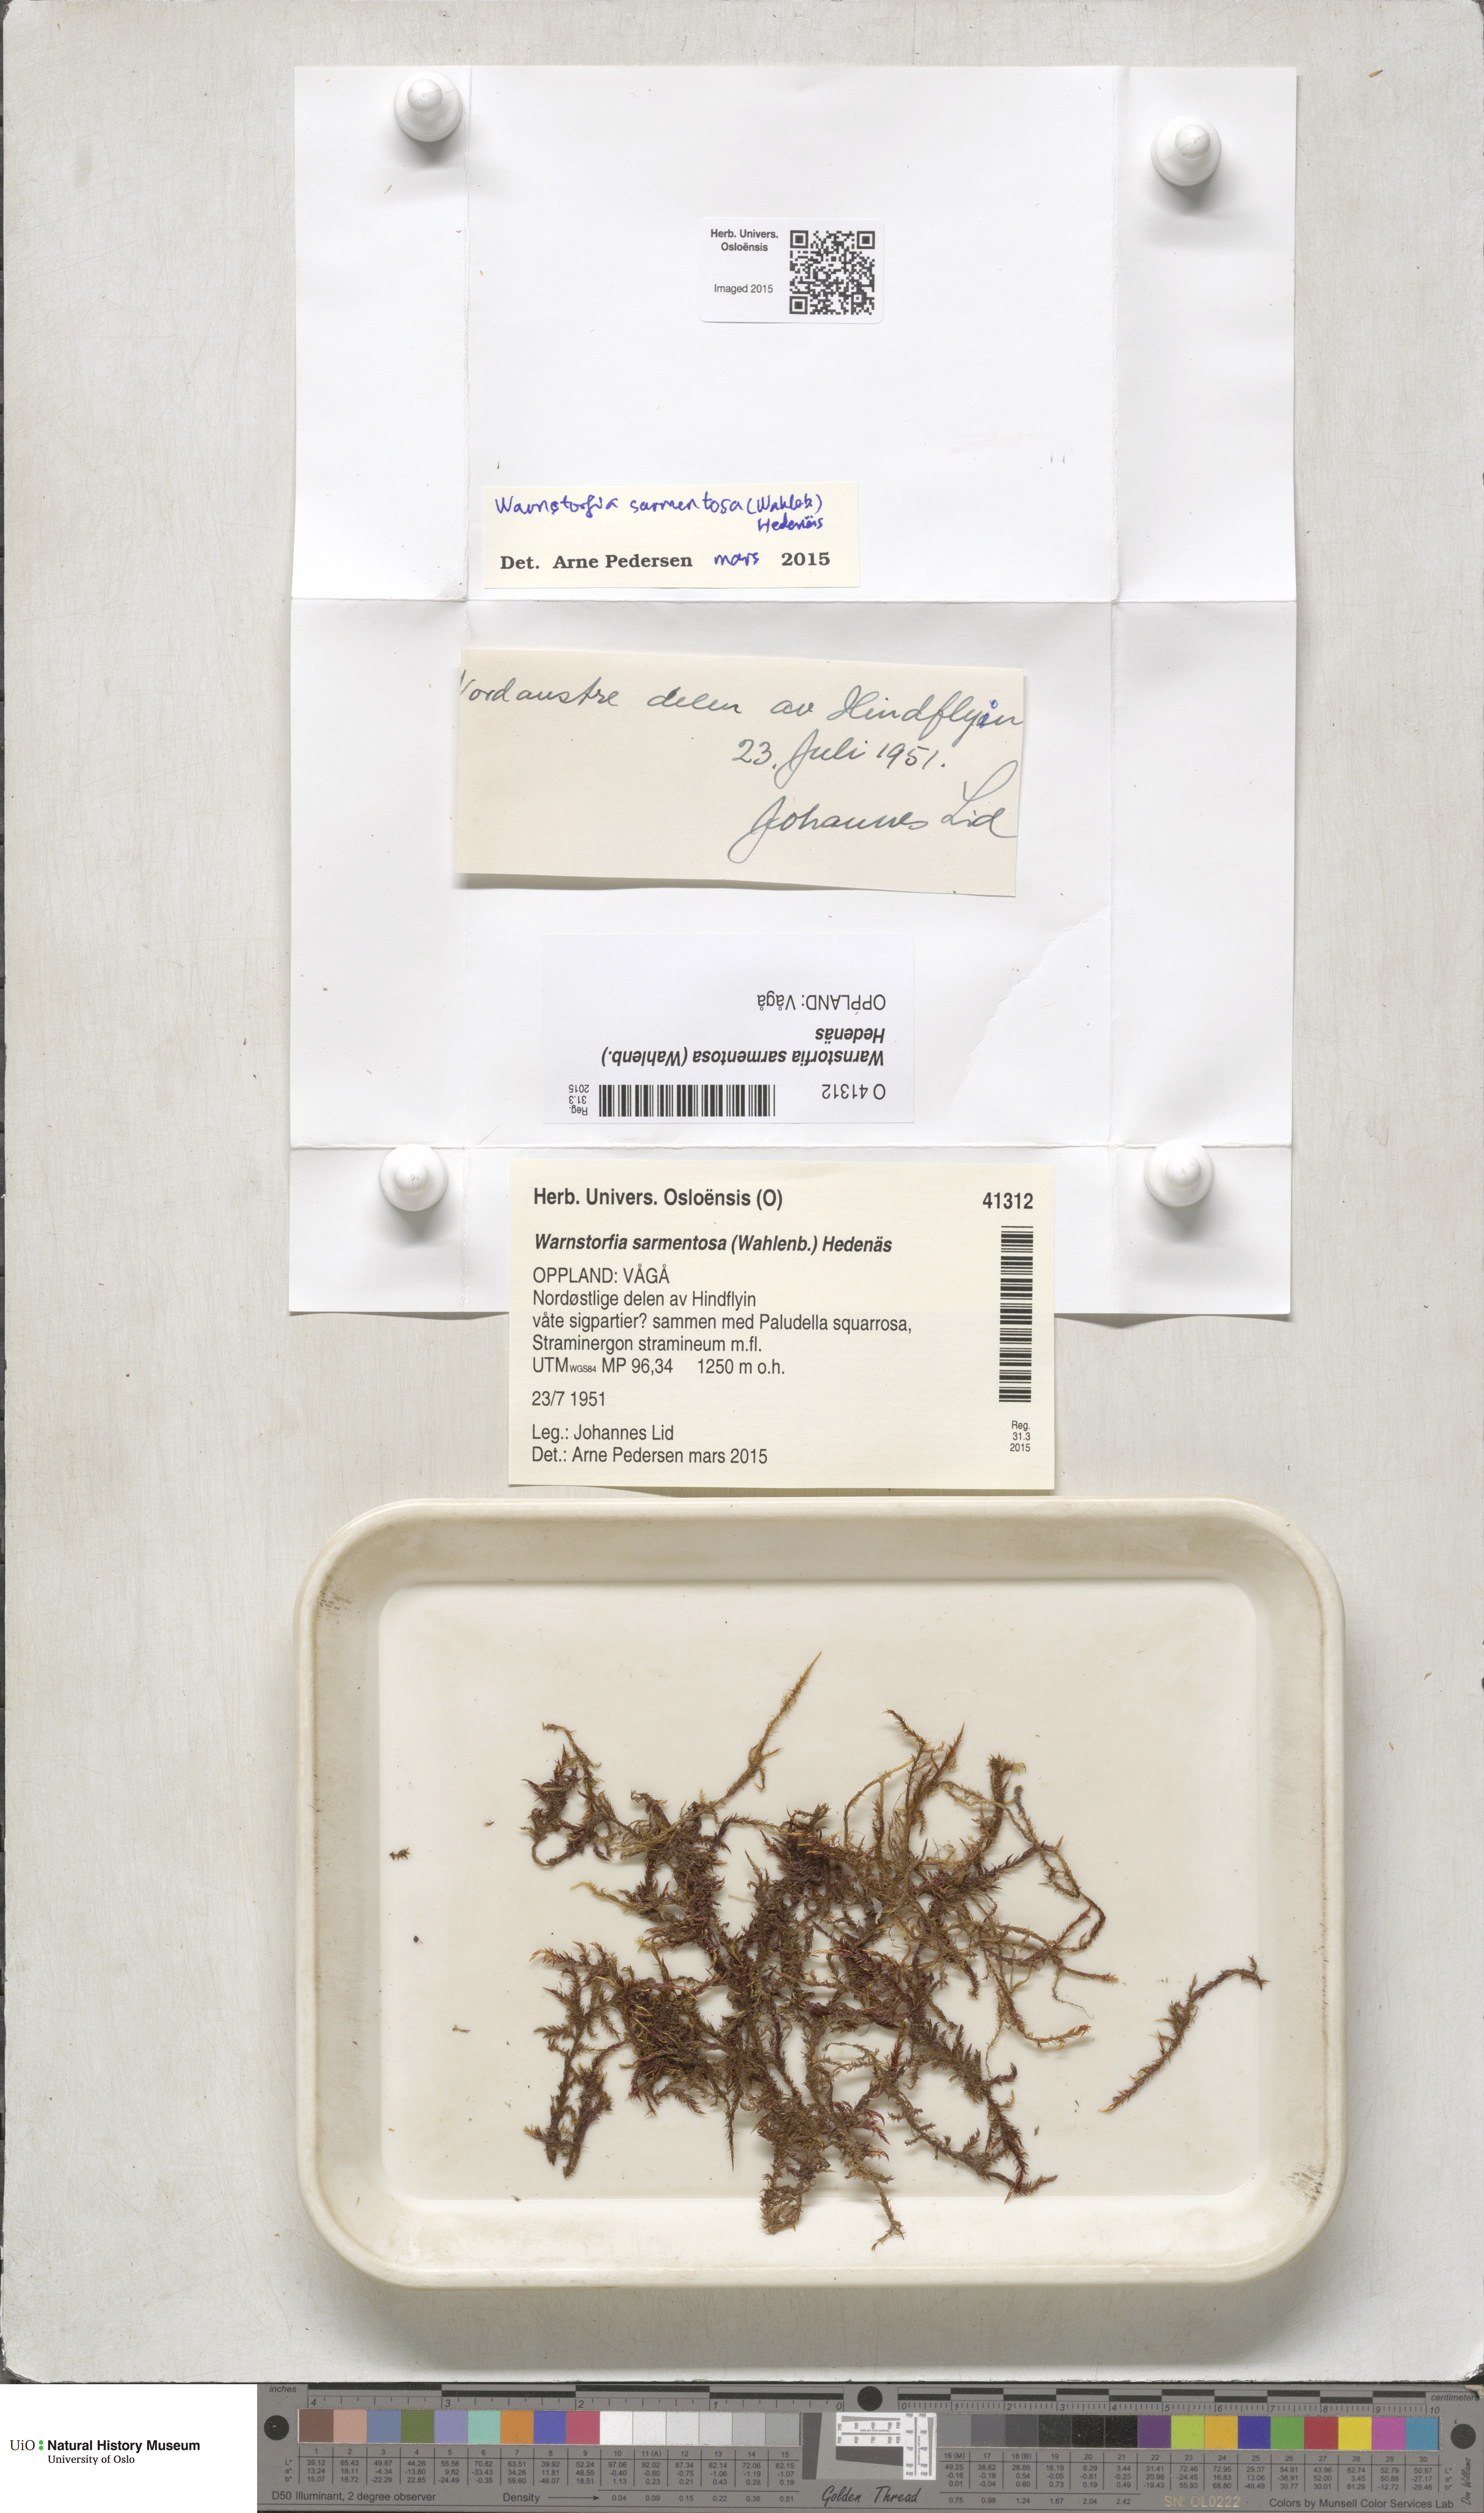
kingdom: Plantae
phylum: Bryophyta
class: Bryopsida
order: Hypnales
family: Calliergonaceae
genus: Sarmentypnum
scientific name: Sarmentypnum sarmentosum
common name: Twiggy spoon moss
